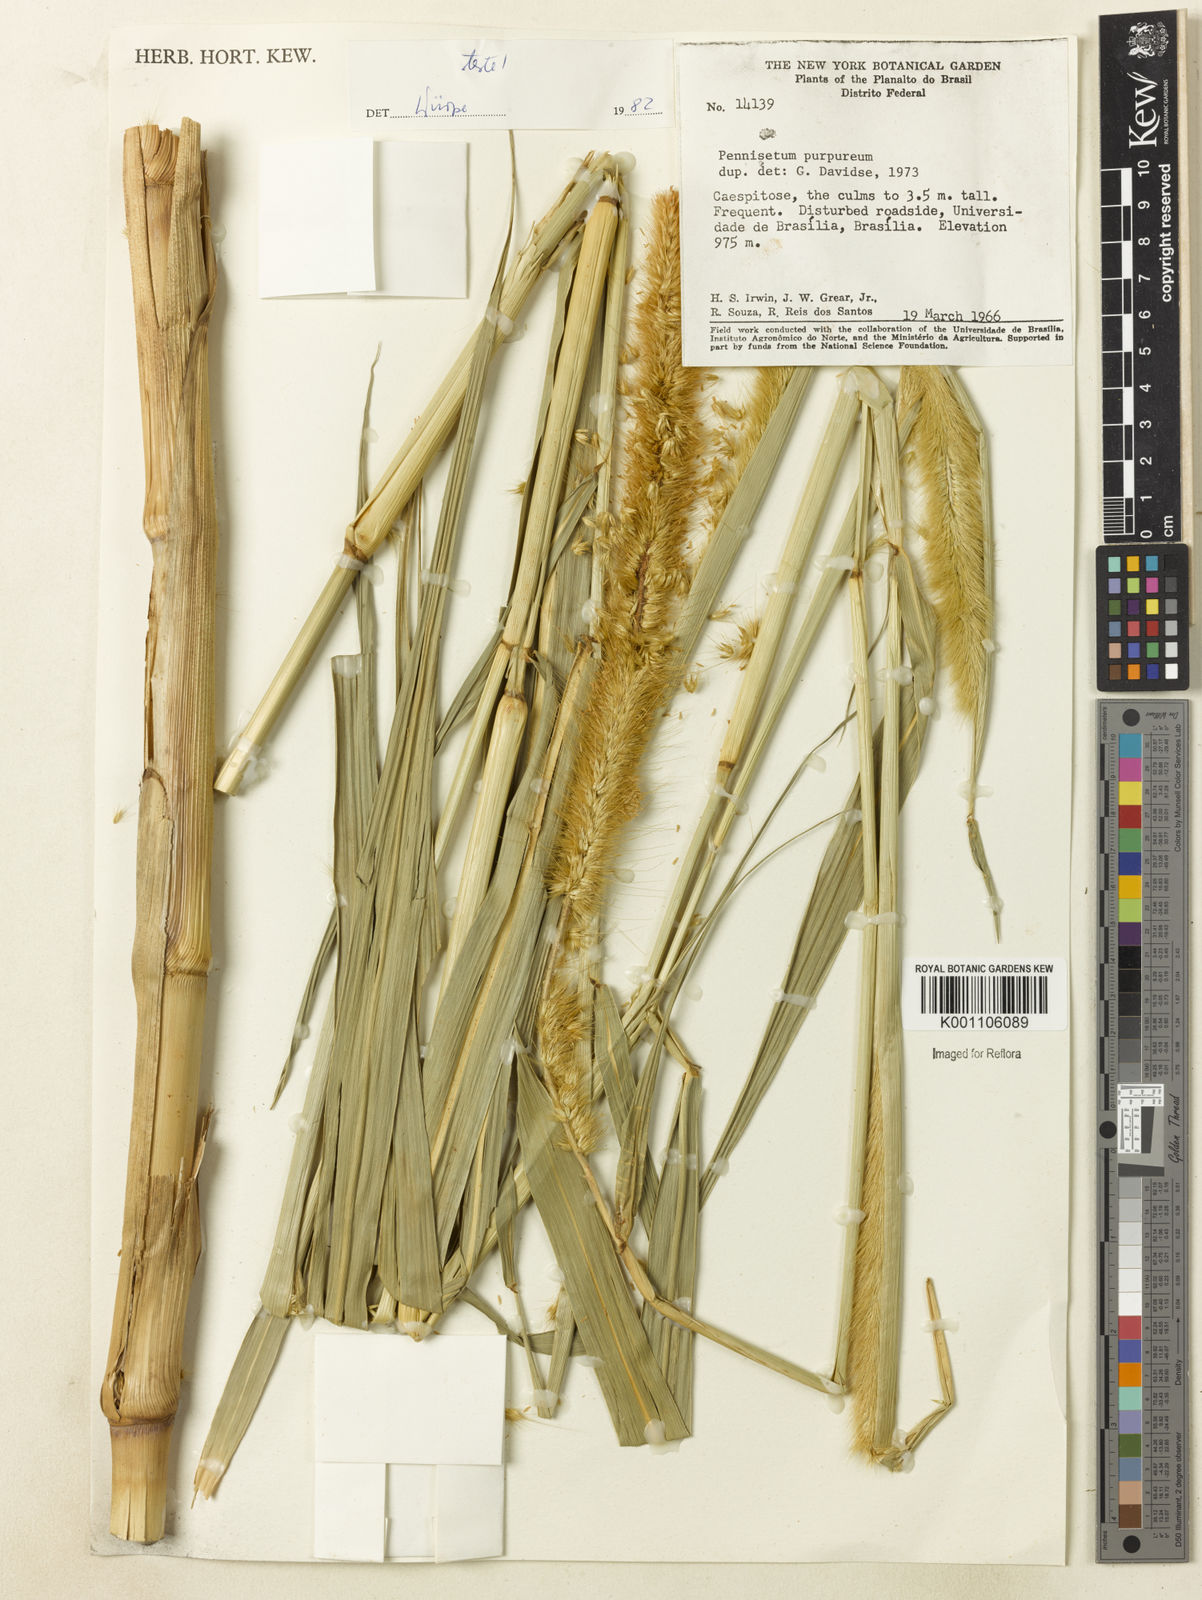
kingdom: Plantae
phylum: Tracheophyta
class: Liliopsida
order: Poales
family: Poaceae
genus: Cenchrus
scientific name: Cenchrus purpureus
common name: Elephant grass
